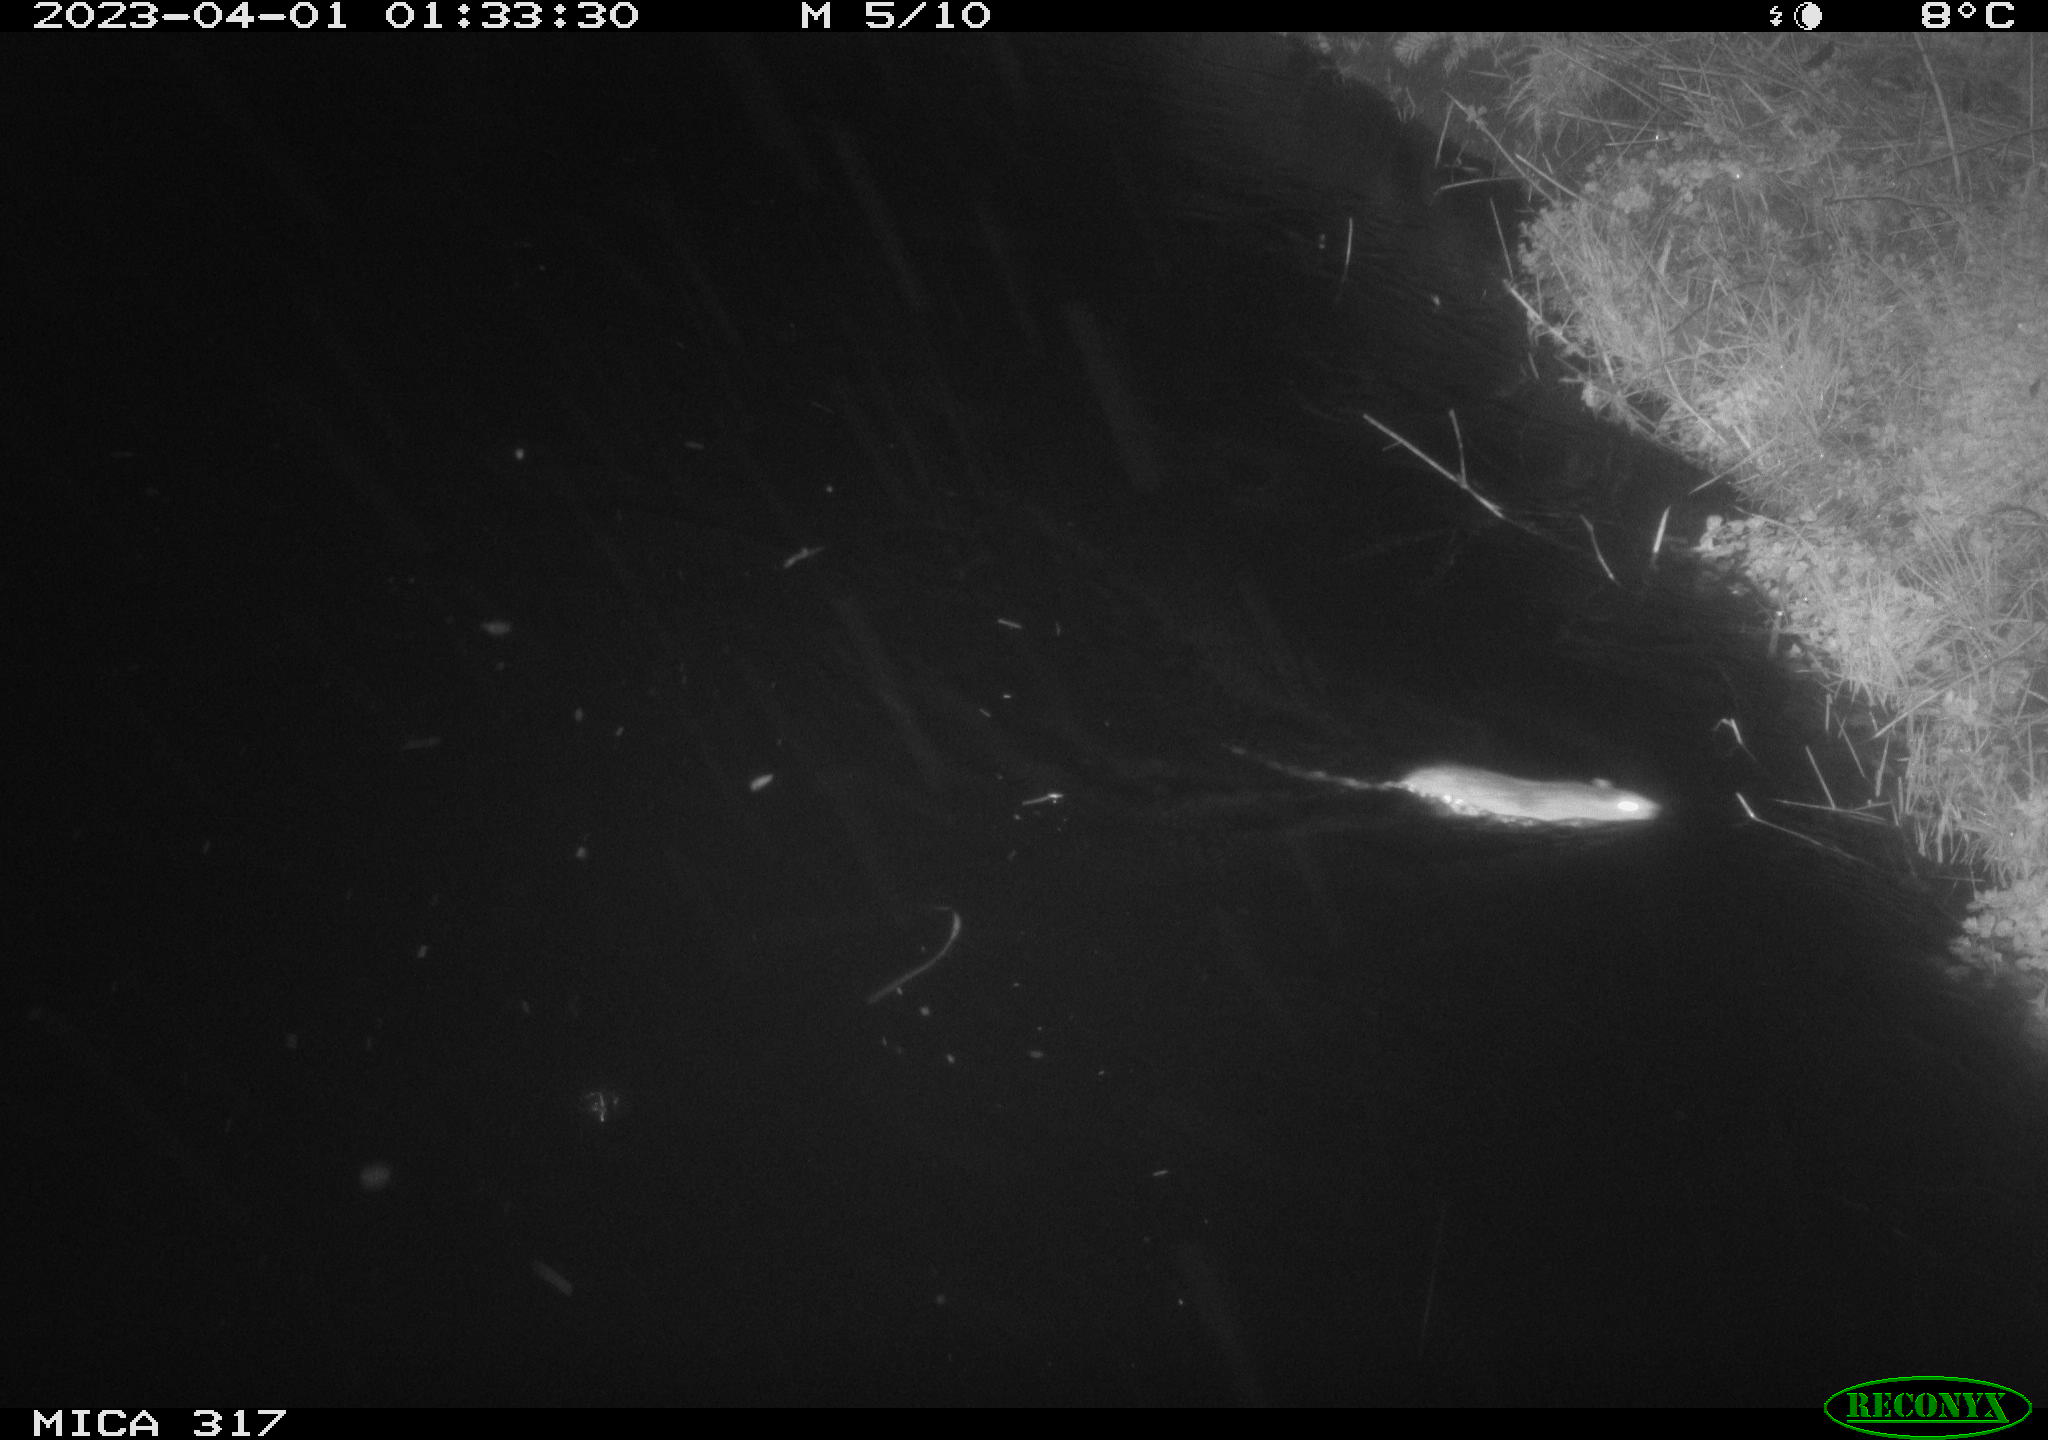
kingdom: Animalia
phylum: Chordata
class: Mammalia
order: Rodentia
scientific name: Rodentia
